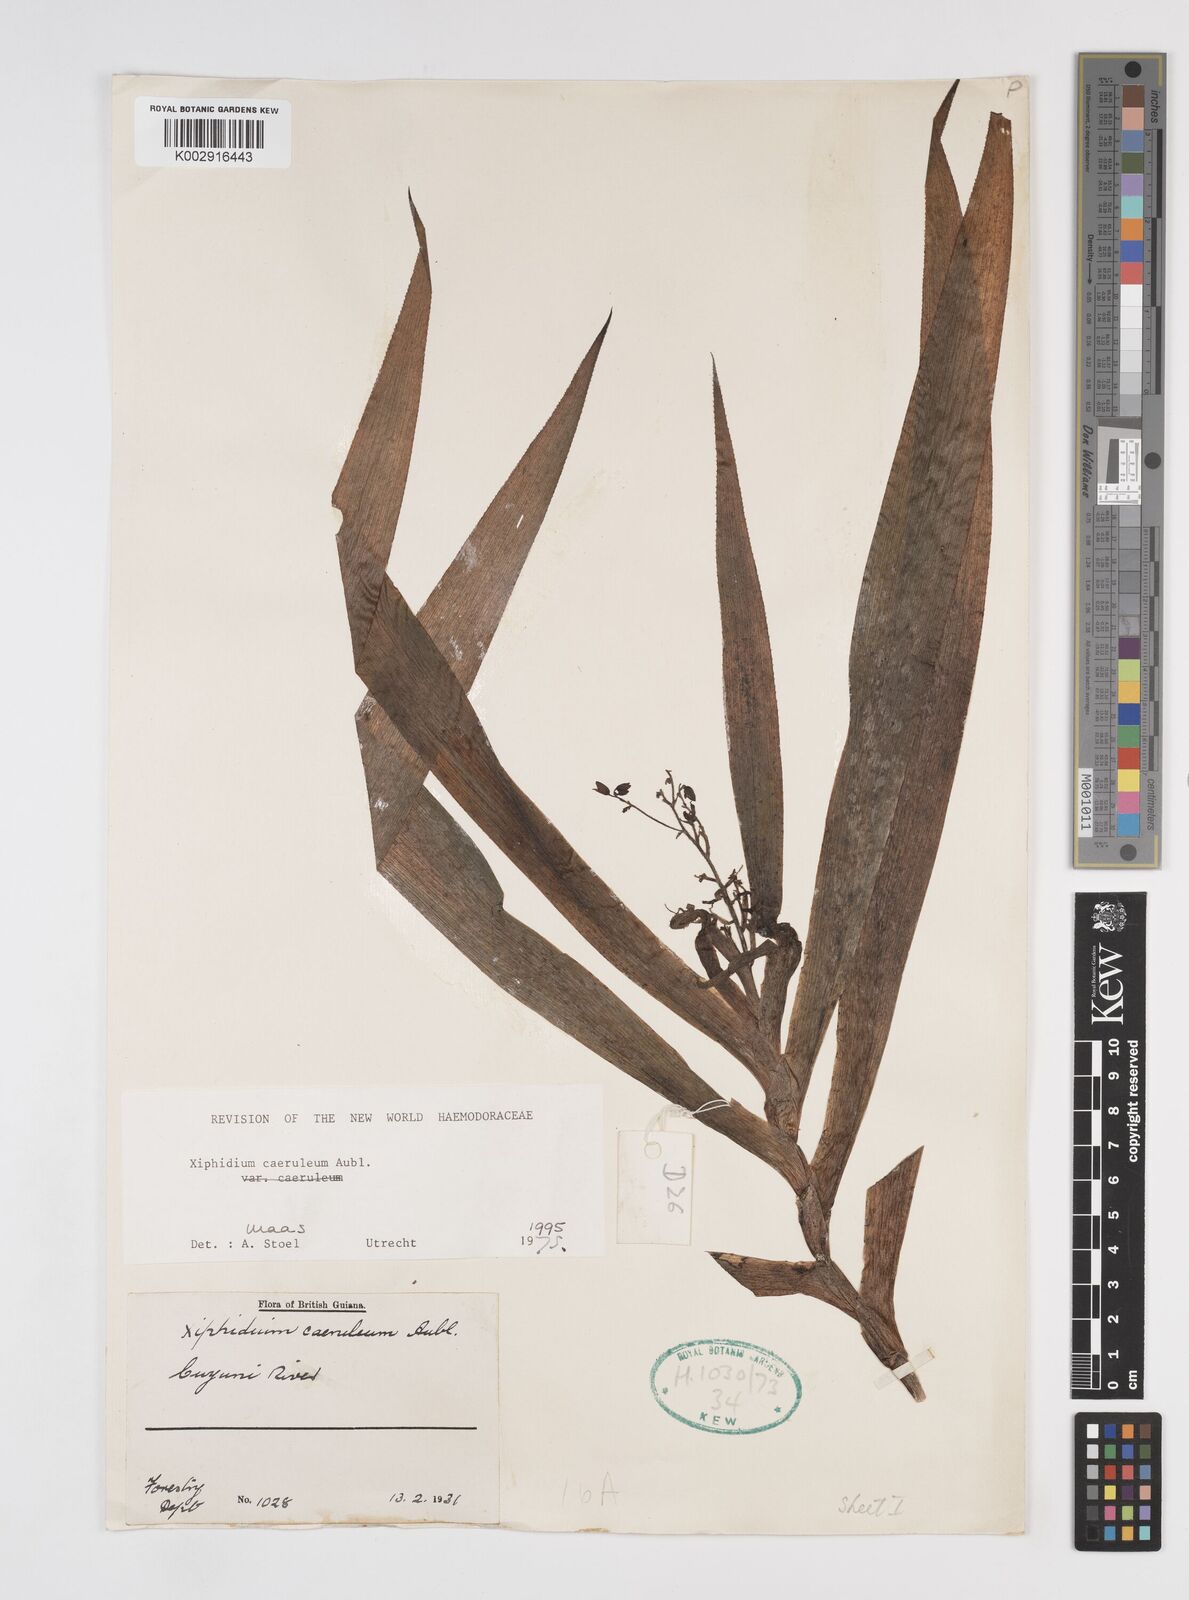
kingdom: Plantae
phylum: Tracheophyta
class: Liliopsida
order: Commelinales
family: Haemodoraceae
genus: Xiphidium
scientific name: Xiphidium caeruleum
